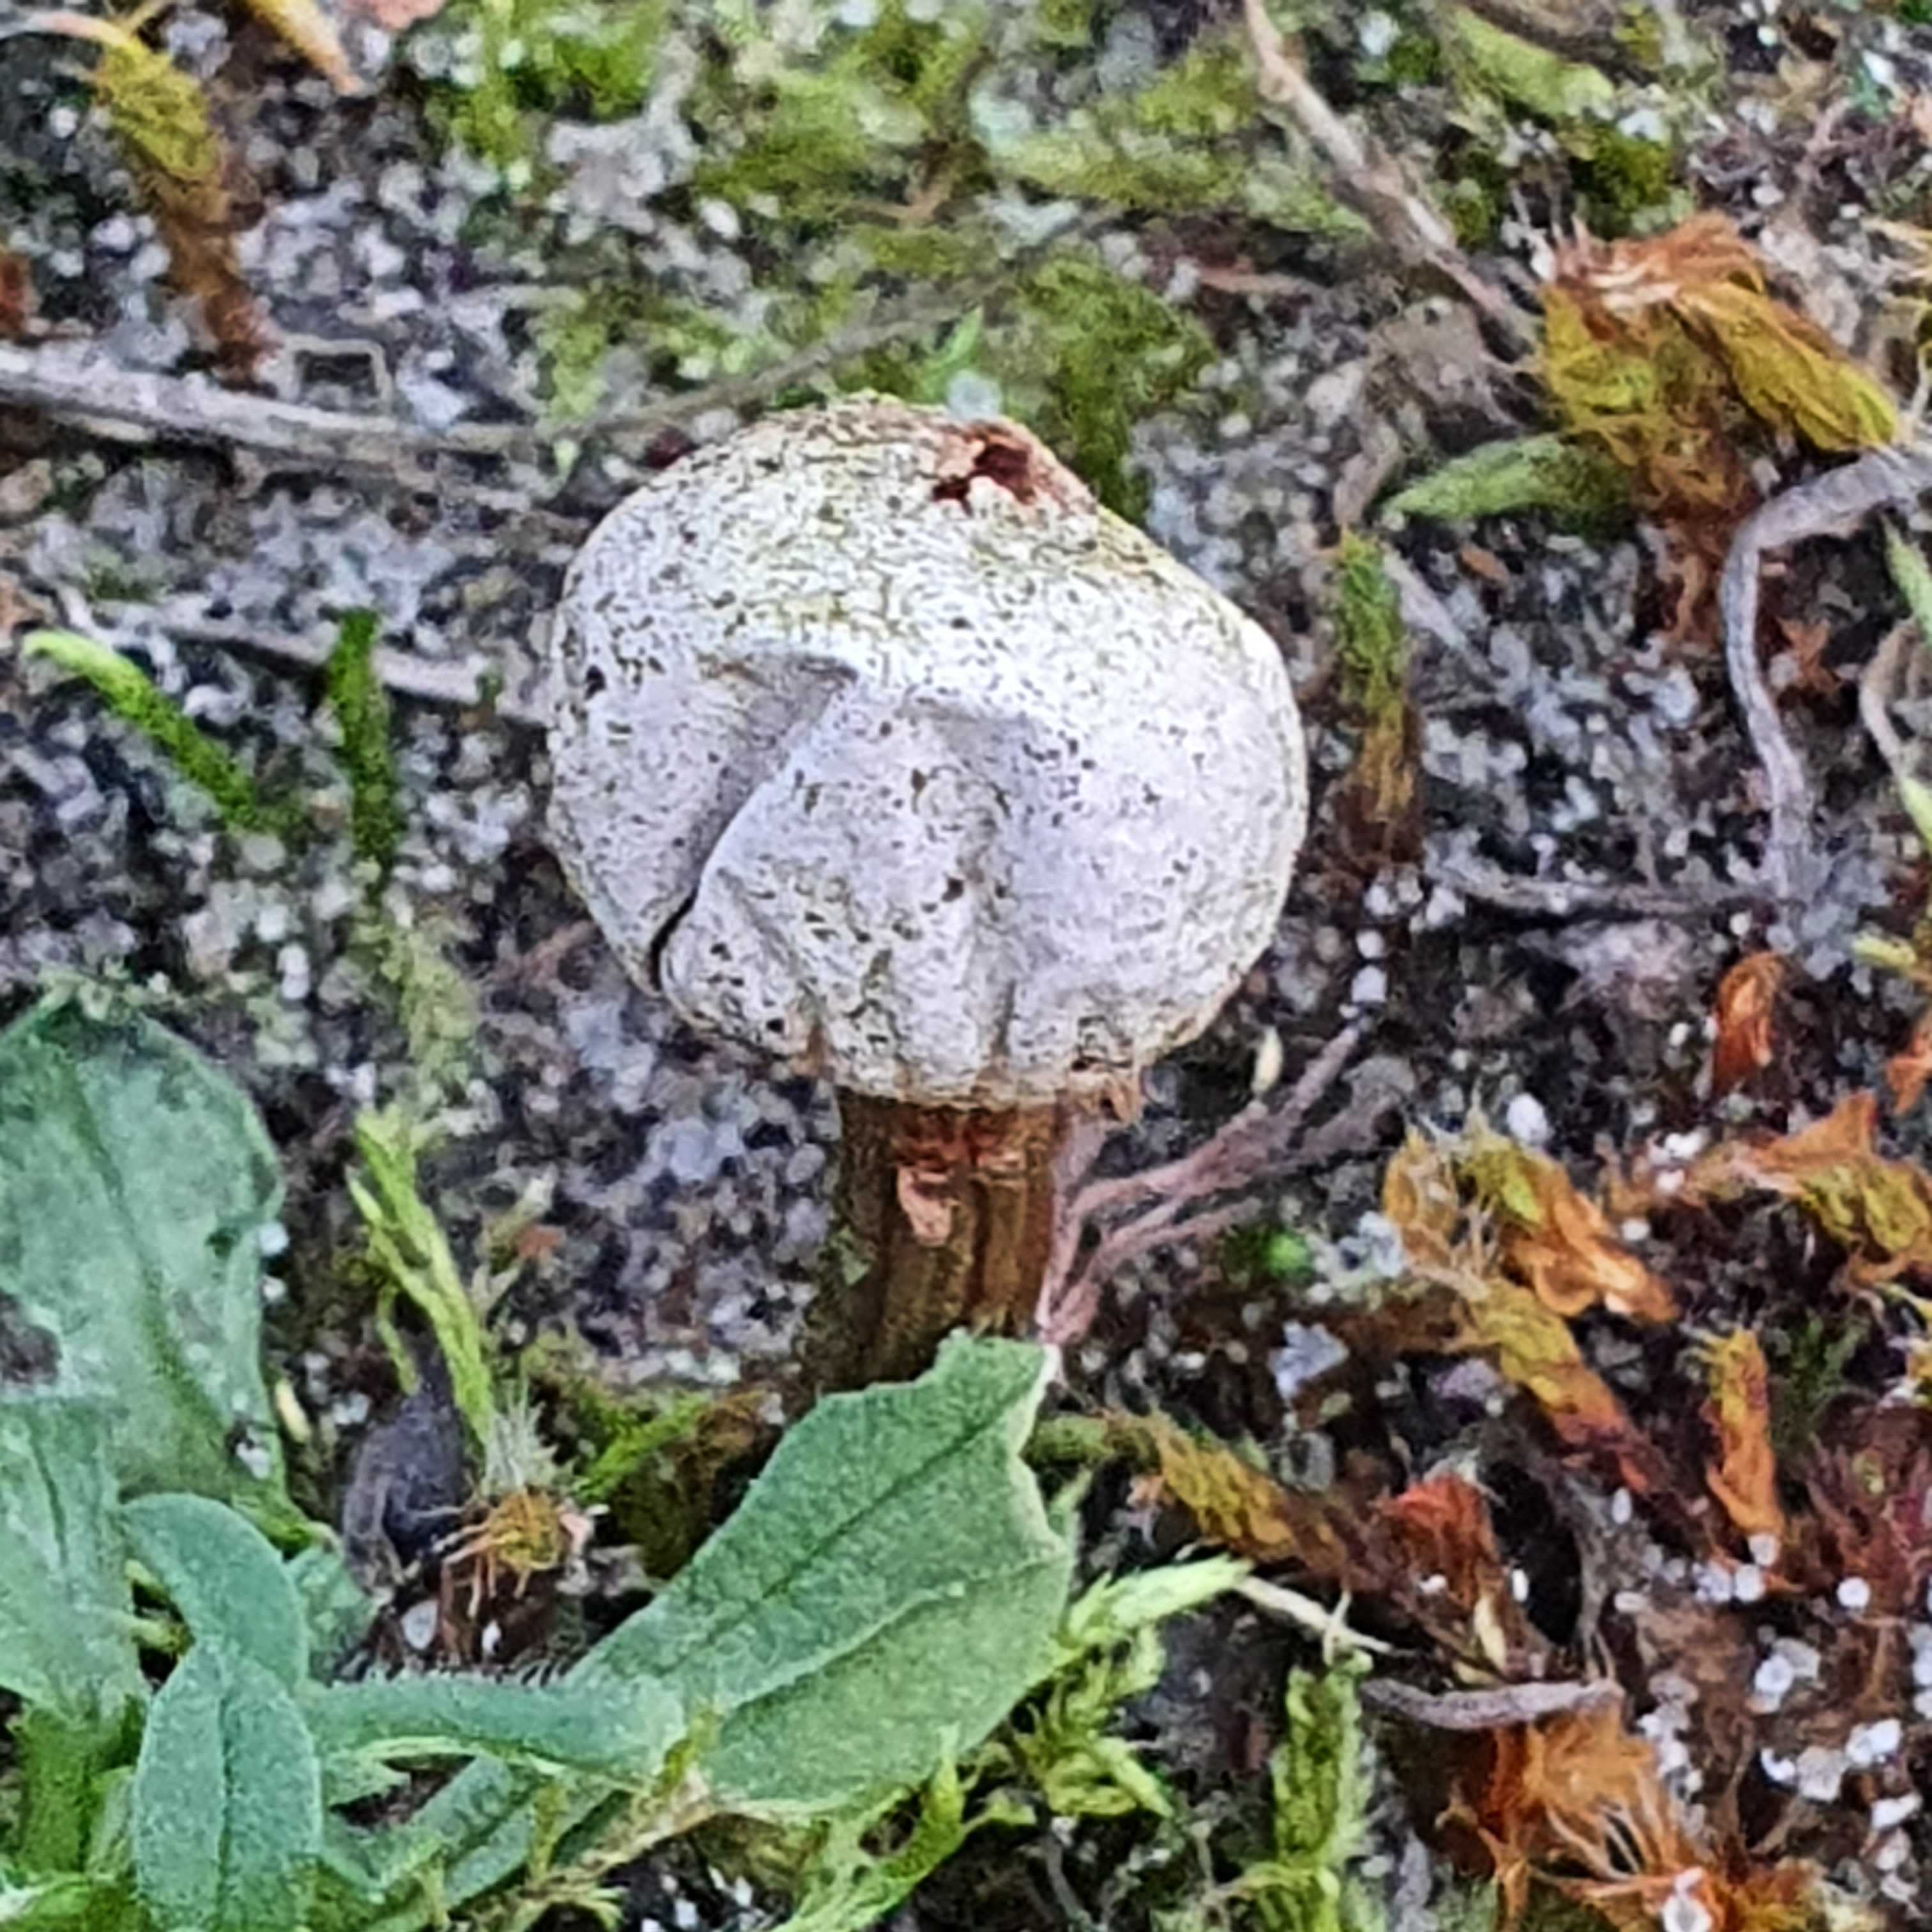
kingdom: Fungi
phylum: Basidiomycota
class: Agaricomycetes
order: Agaricales
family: Agaricaceae
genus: Tulostoma
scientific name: Tulostoma winterhoffii
